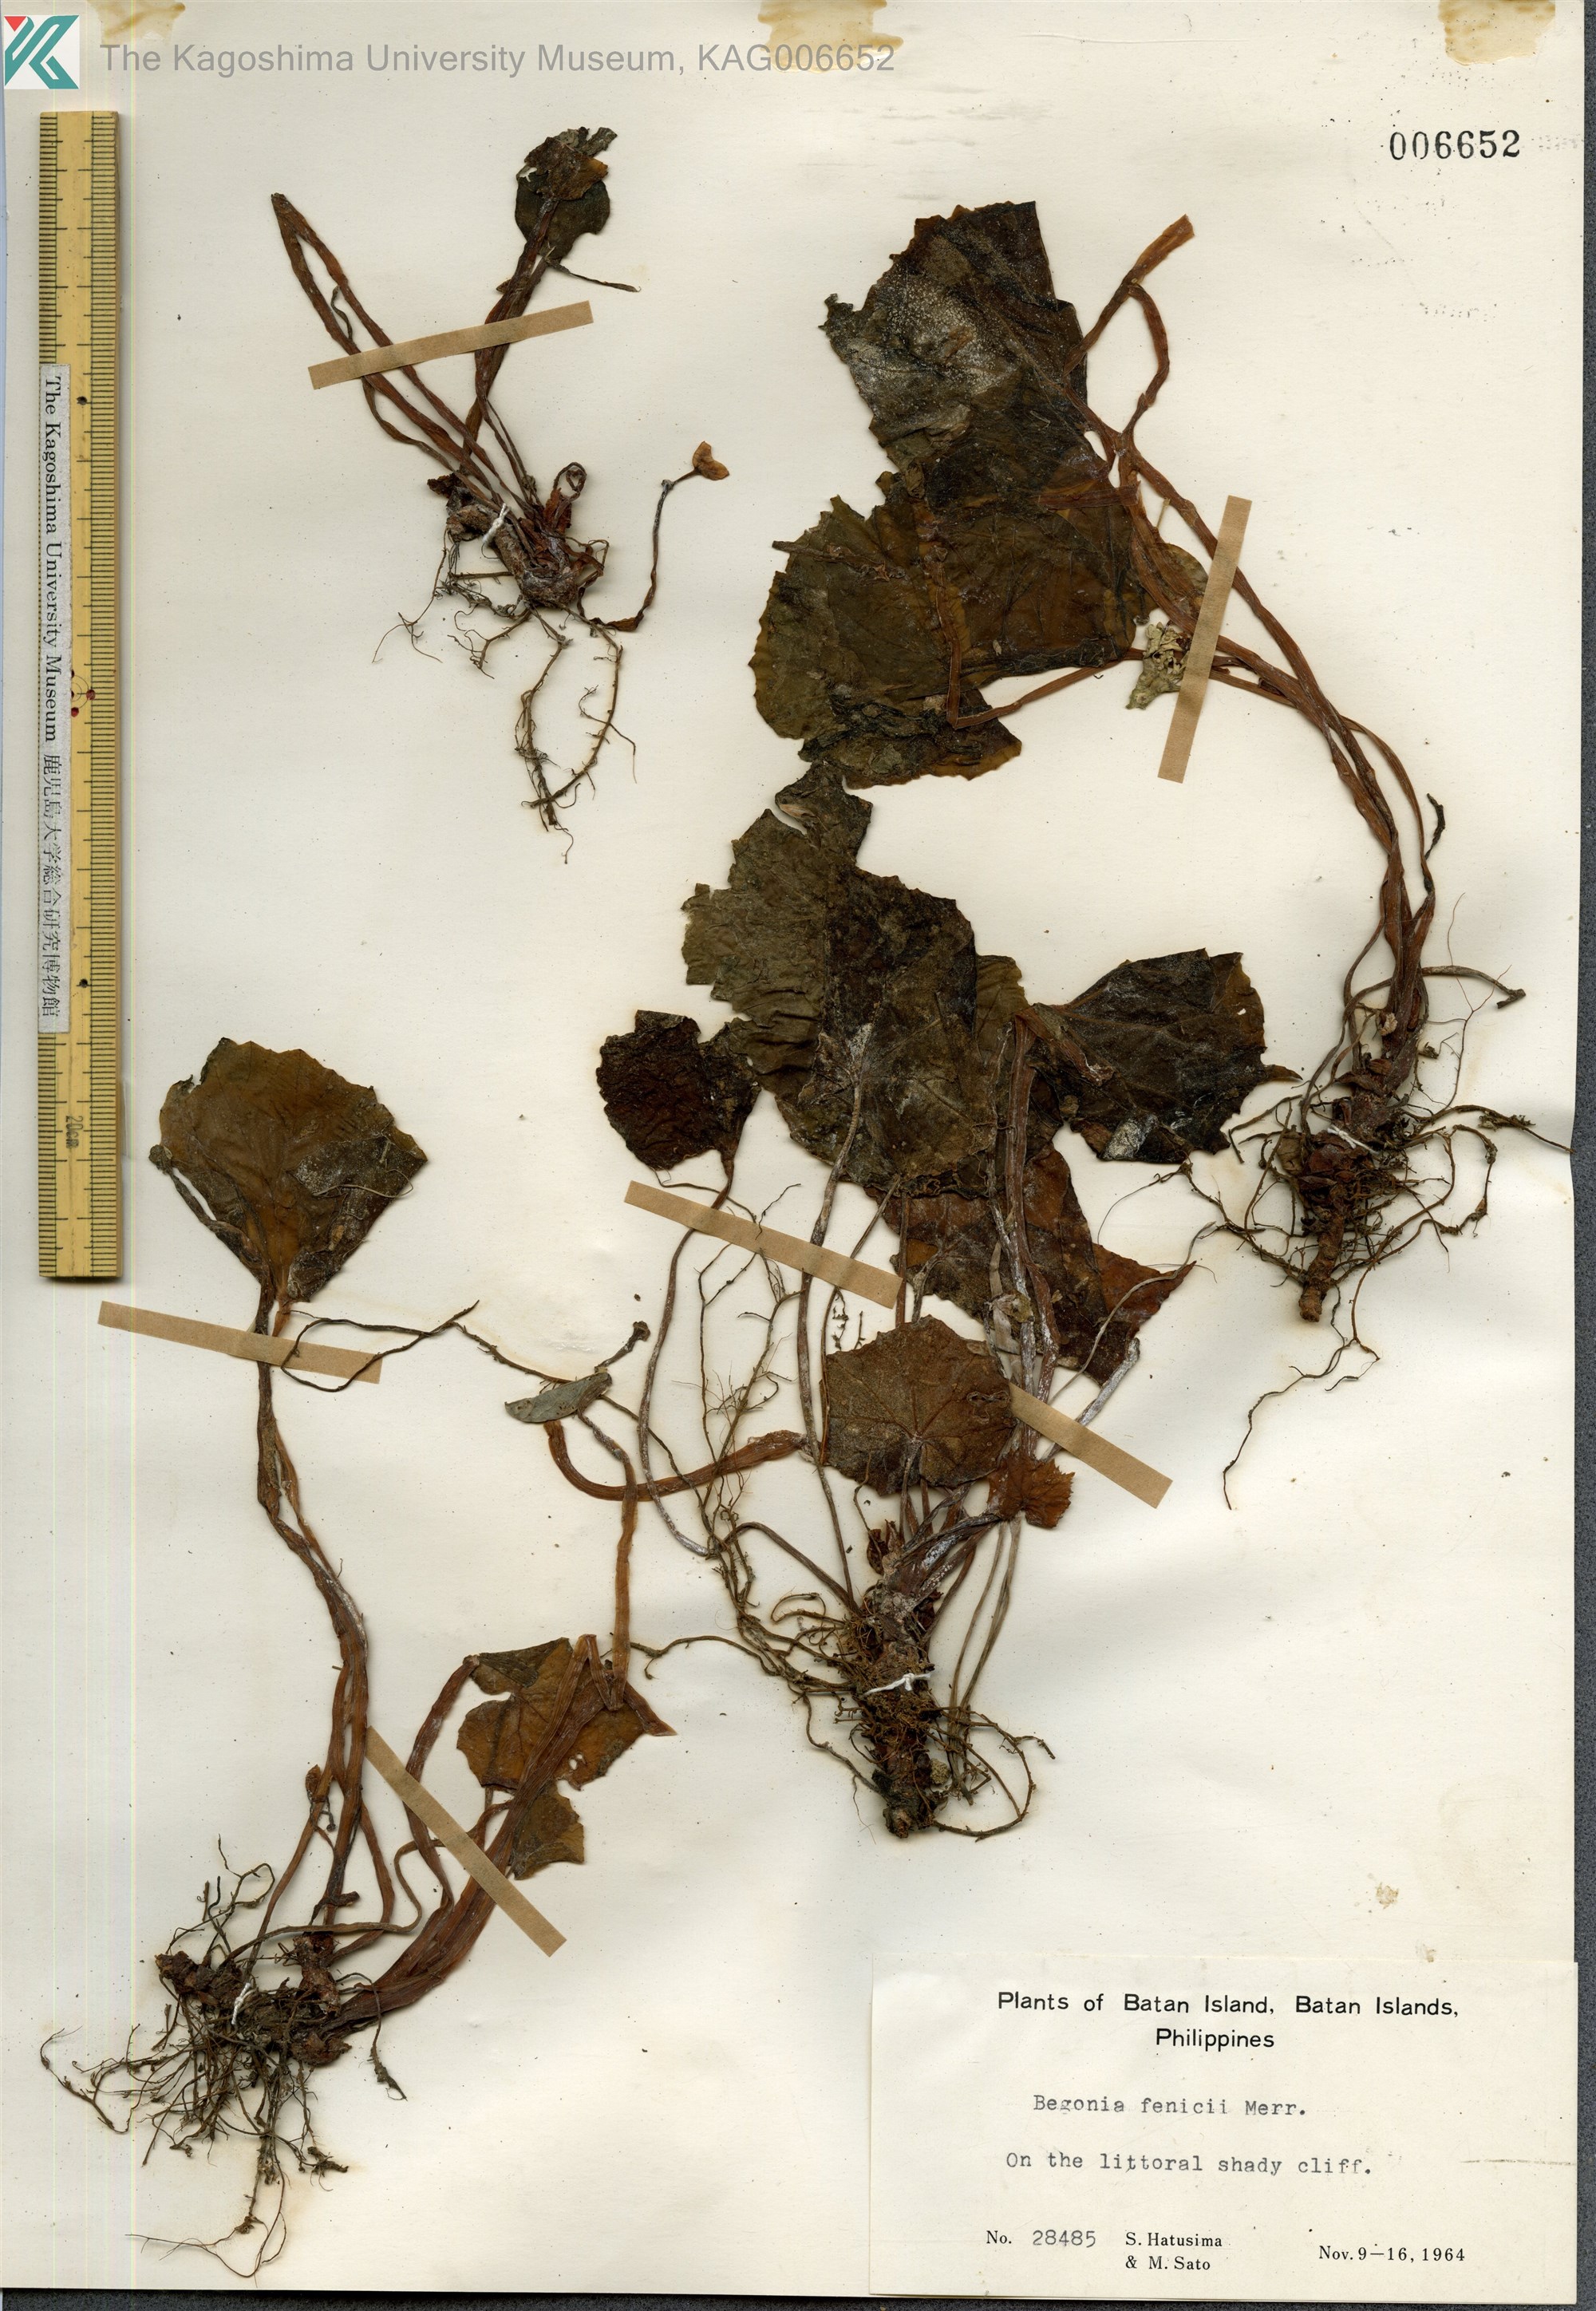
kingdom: Plantae
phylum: Tracheophyta
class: Magnoliopsida
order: Cucurbitales
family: Begoniaceae
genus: Begonia
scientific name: Begonia fenicis
